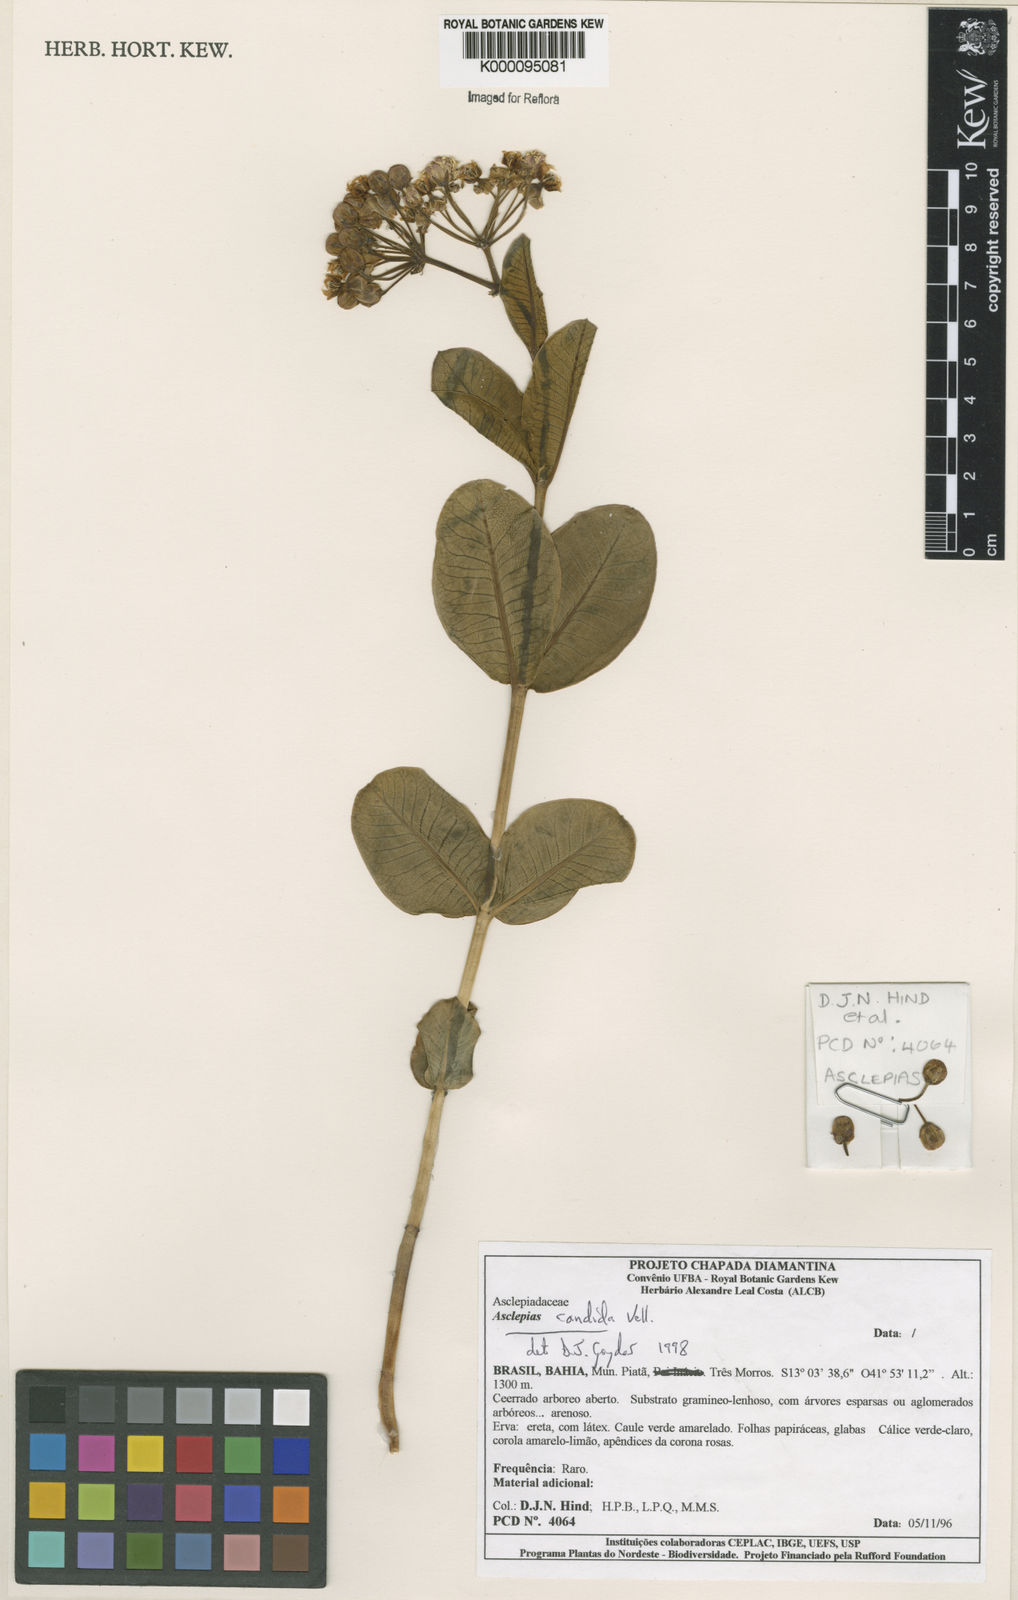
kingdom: Plantae
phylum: Tracheophyta
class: Magnoliopsida
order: Gentianales
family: Apocynaceae
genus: Asclepias
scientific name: Asclepias candida
